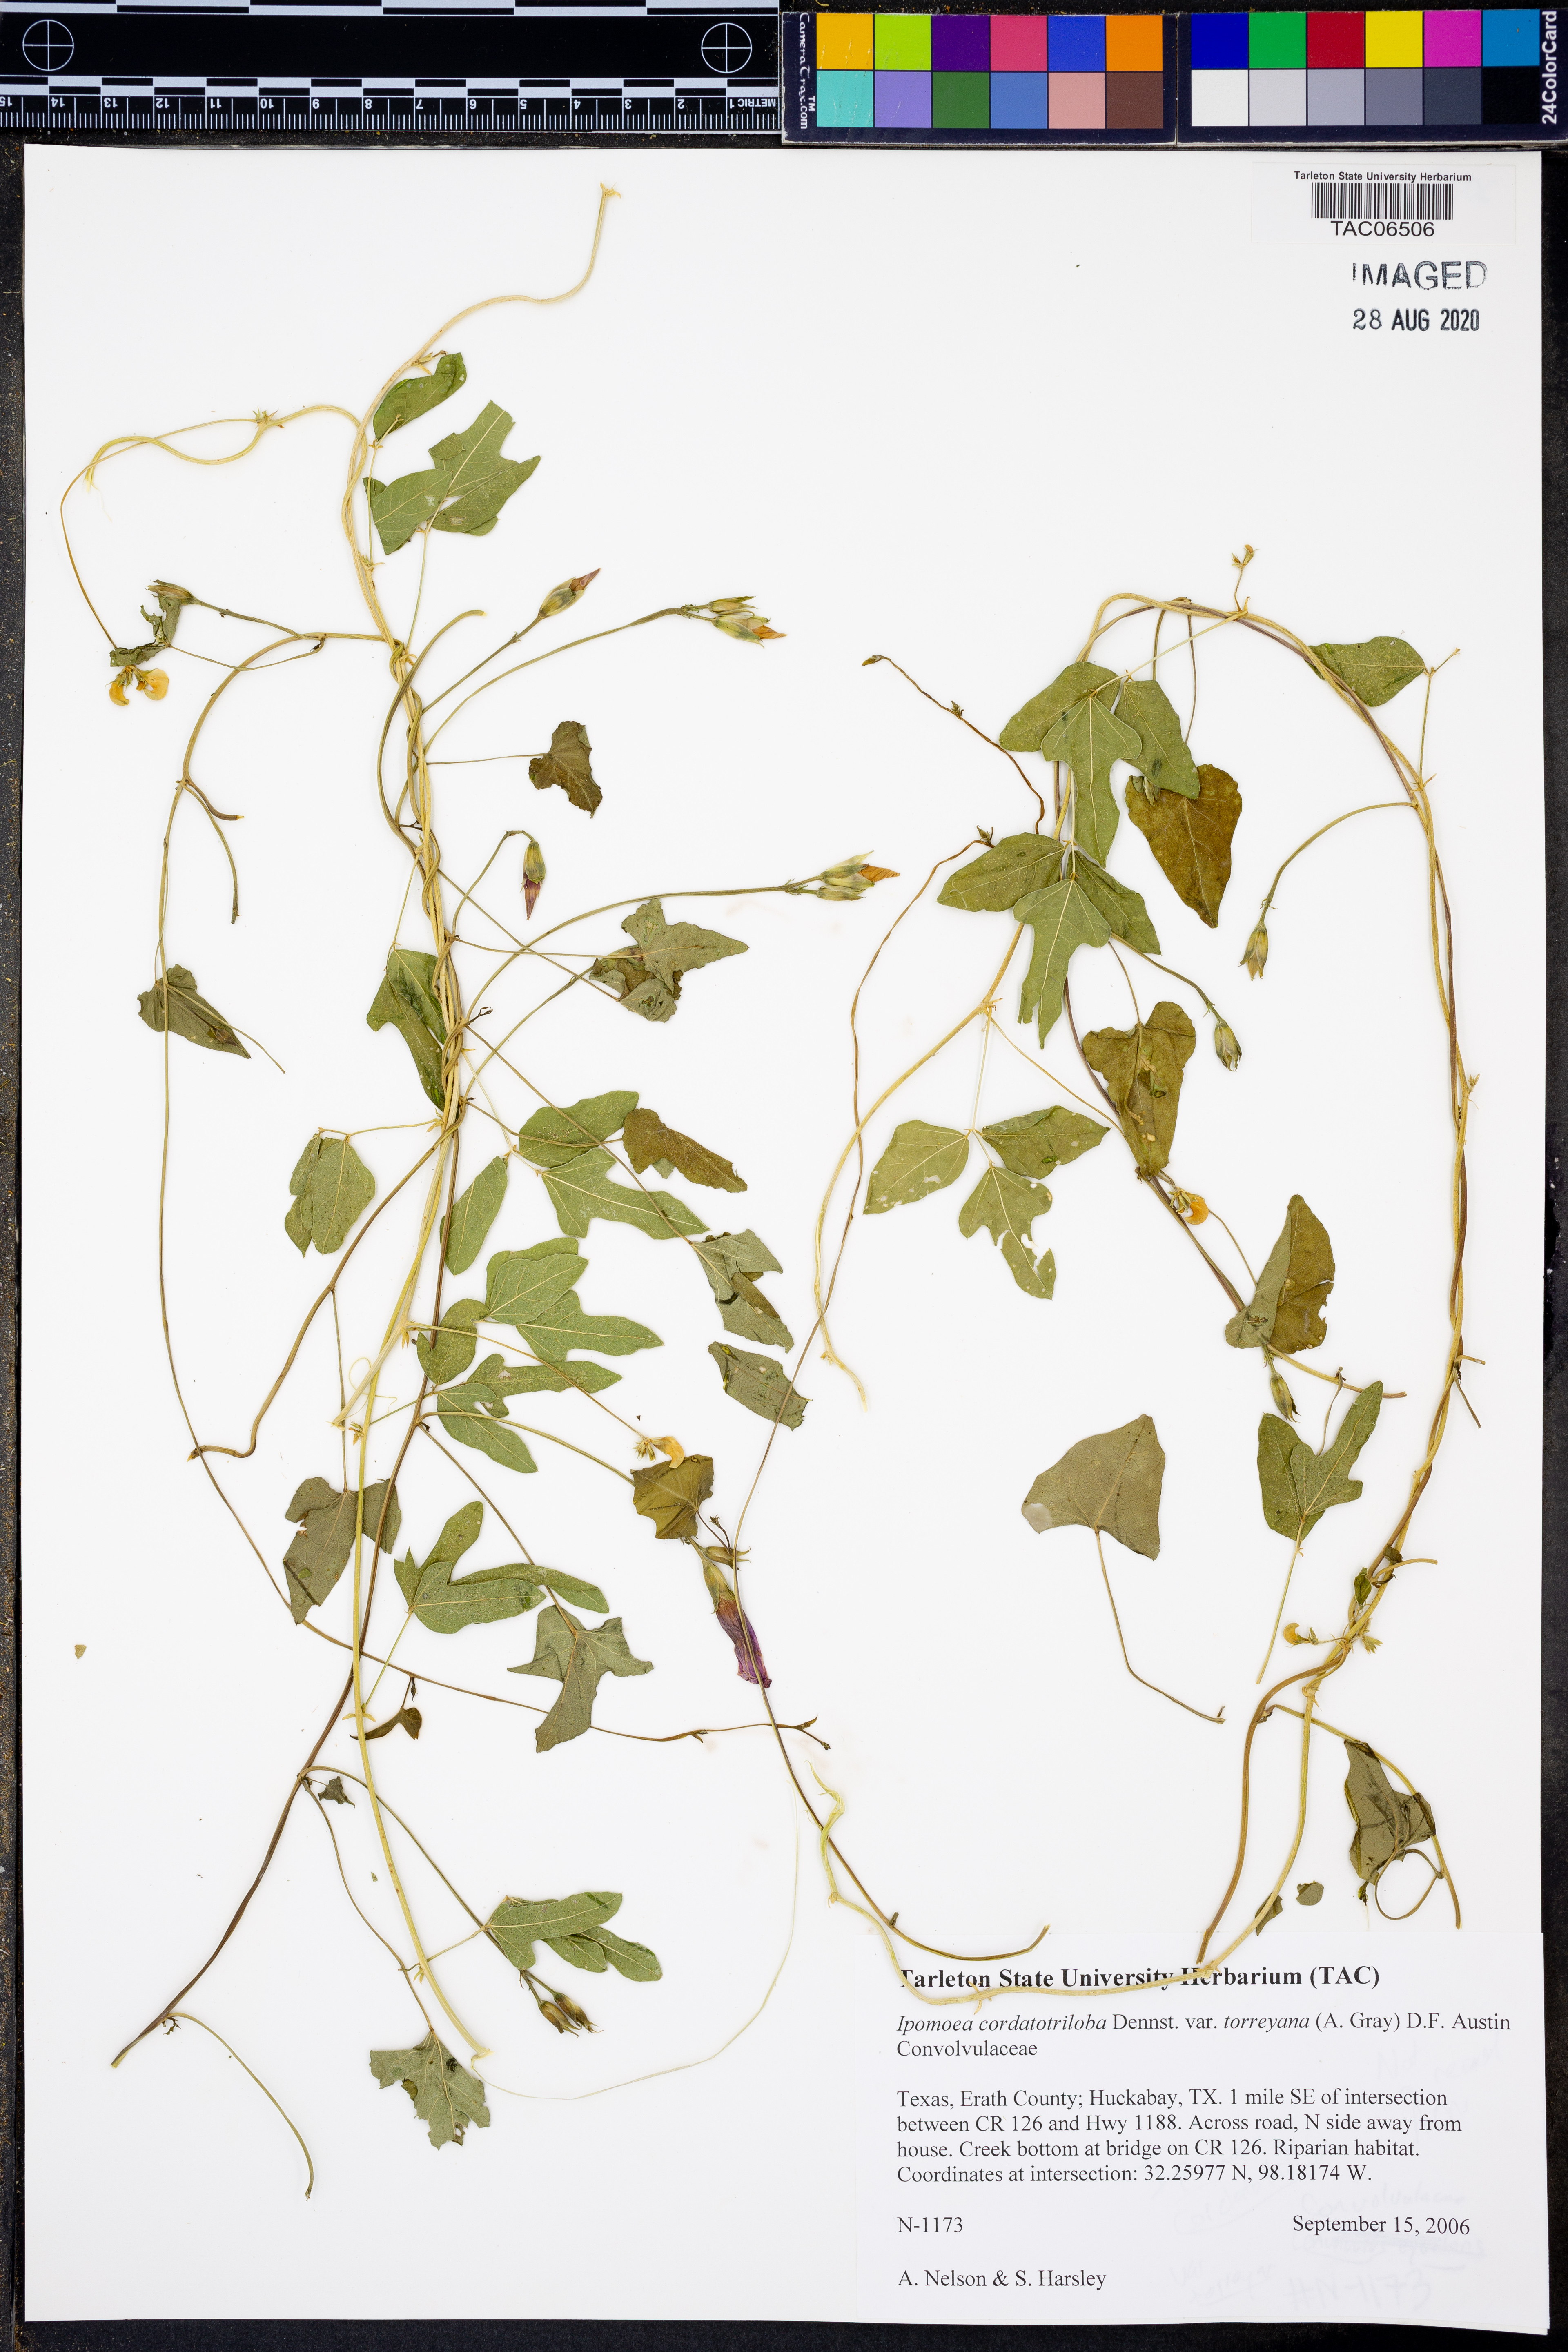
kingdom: Plantae
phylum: Tracheophyta
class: Magnoliopsida
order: Solanales
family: Convolvulaceae
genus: Ipomoea
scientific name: Ipomoea cordatotriloba
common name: Cotton morning glory
